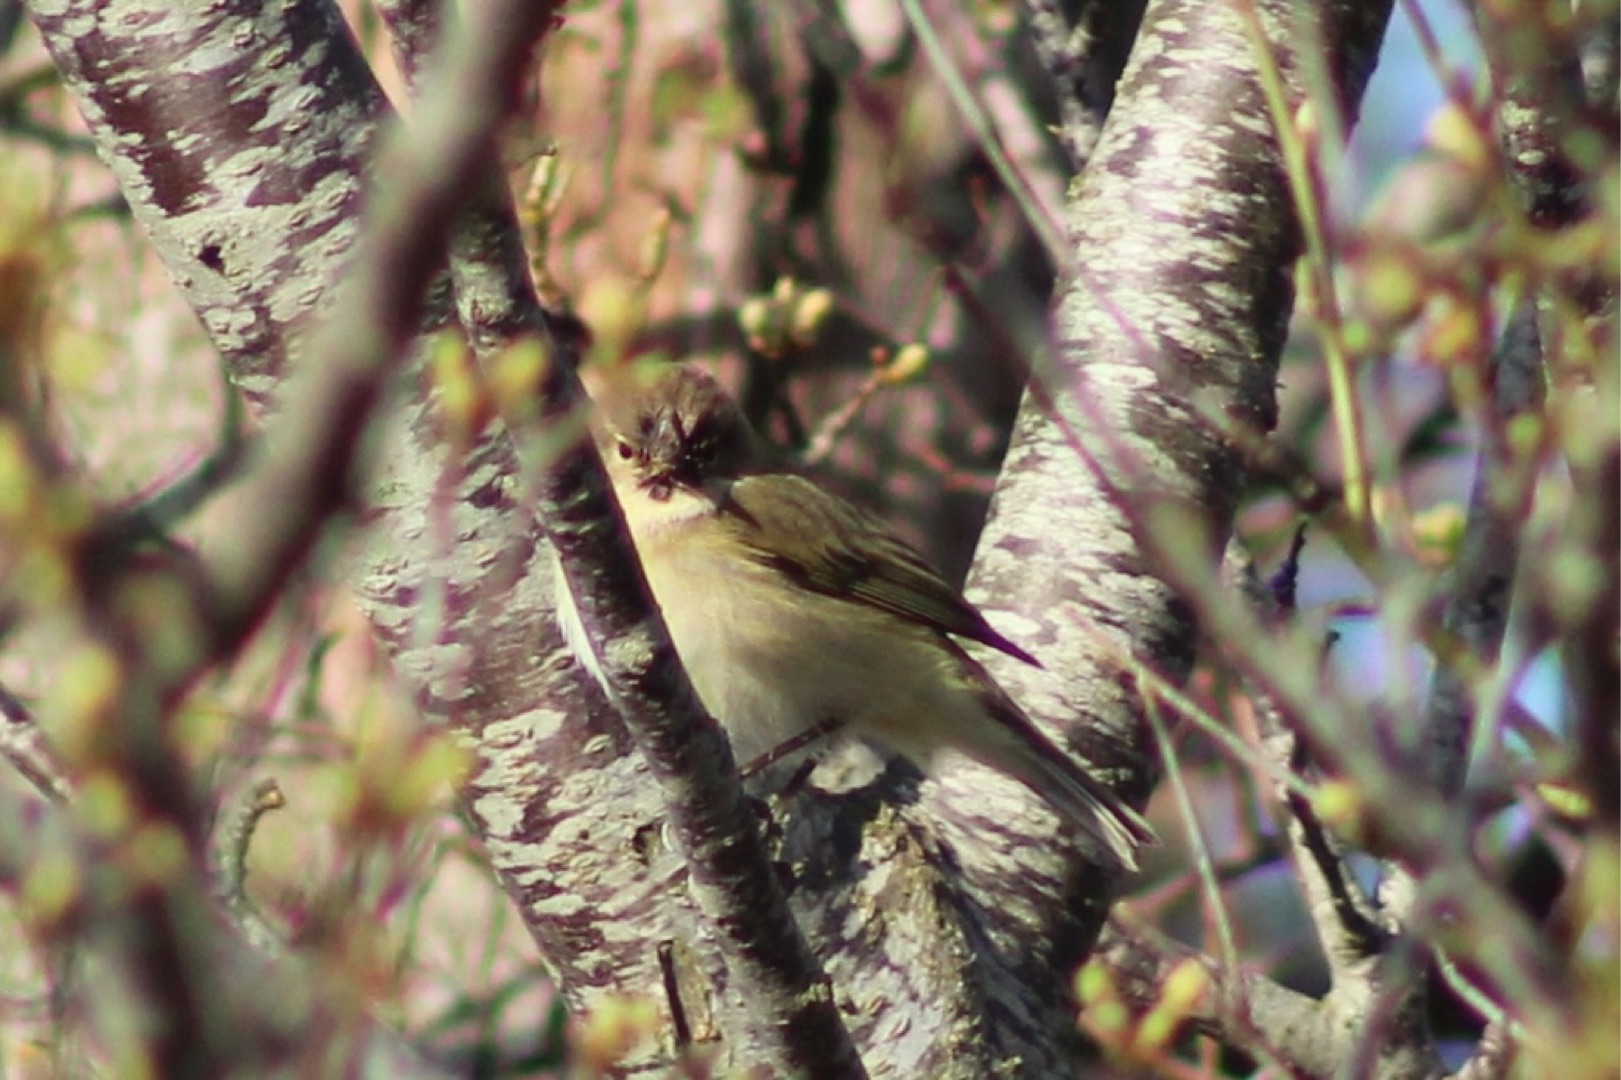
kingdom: Animalia
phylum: Chordata
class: Aves
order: Passeriformes
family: Phylloscopidae
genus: Phylloscopus
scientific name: Phylloscopus collybita
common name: Gransanger
